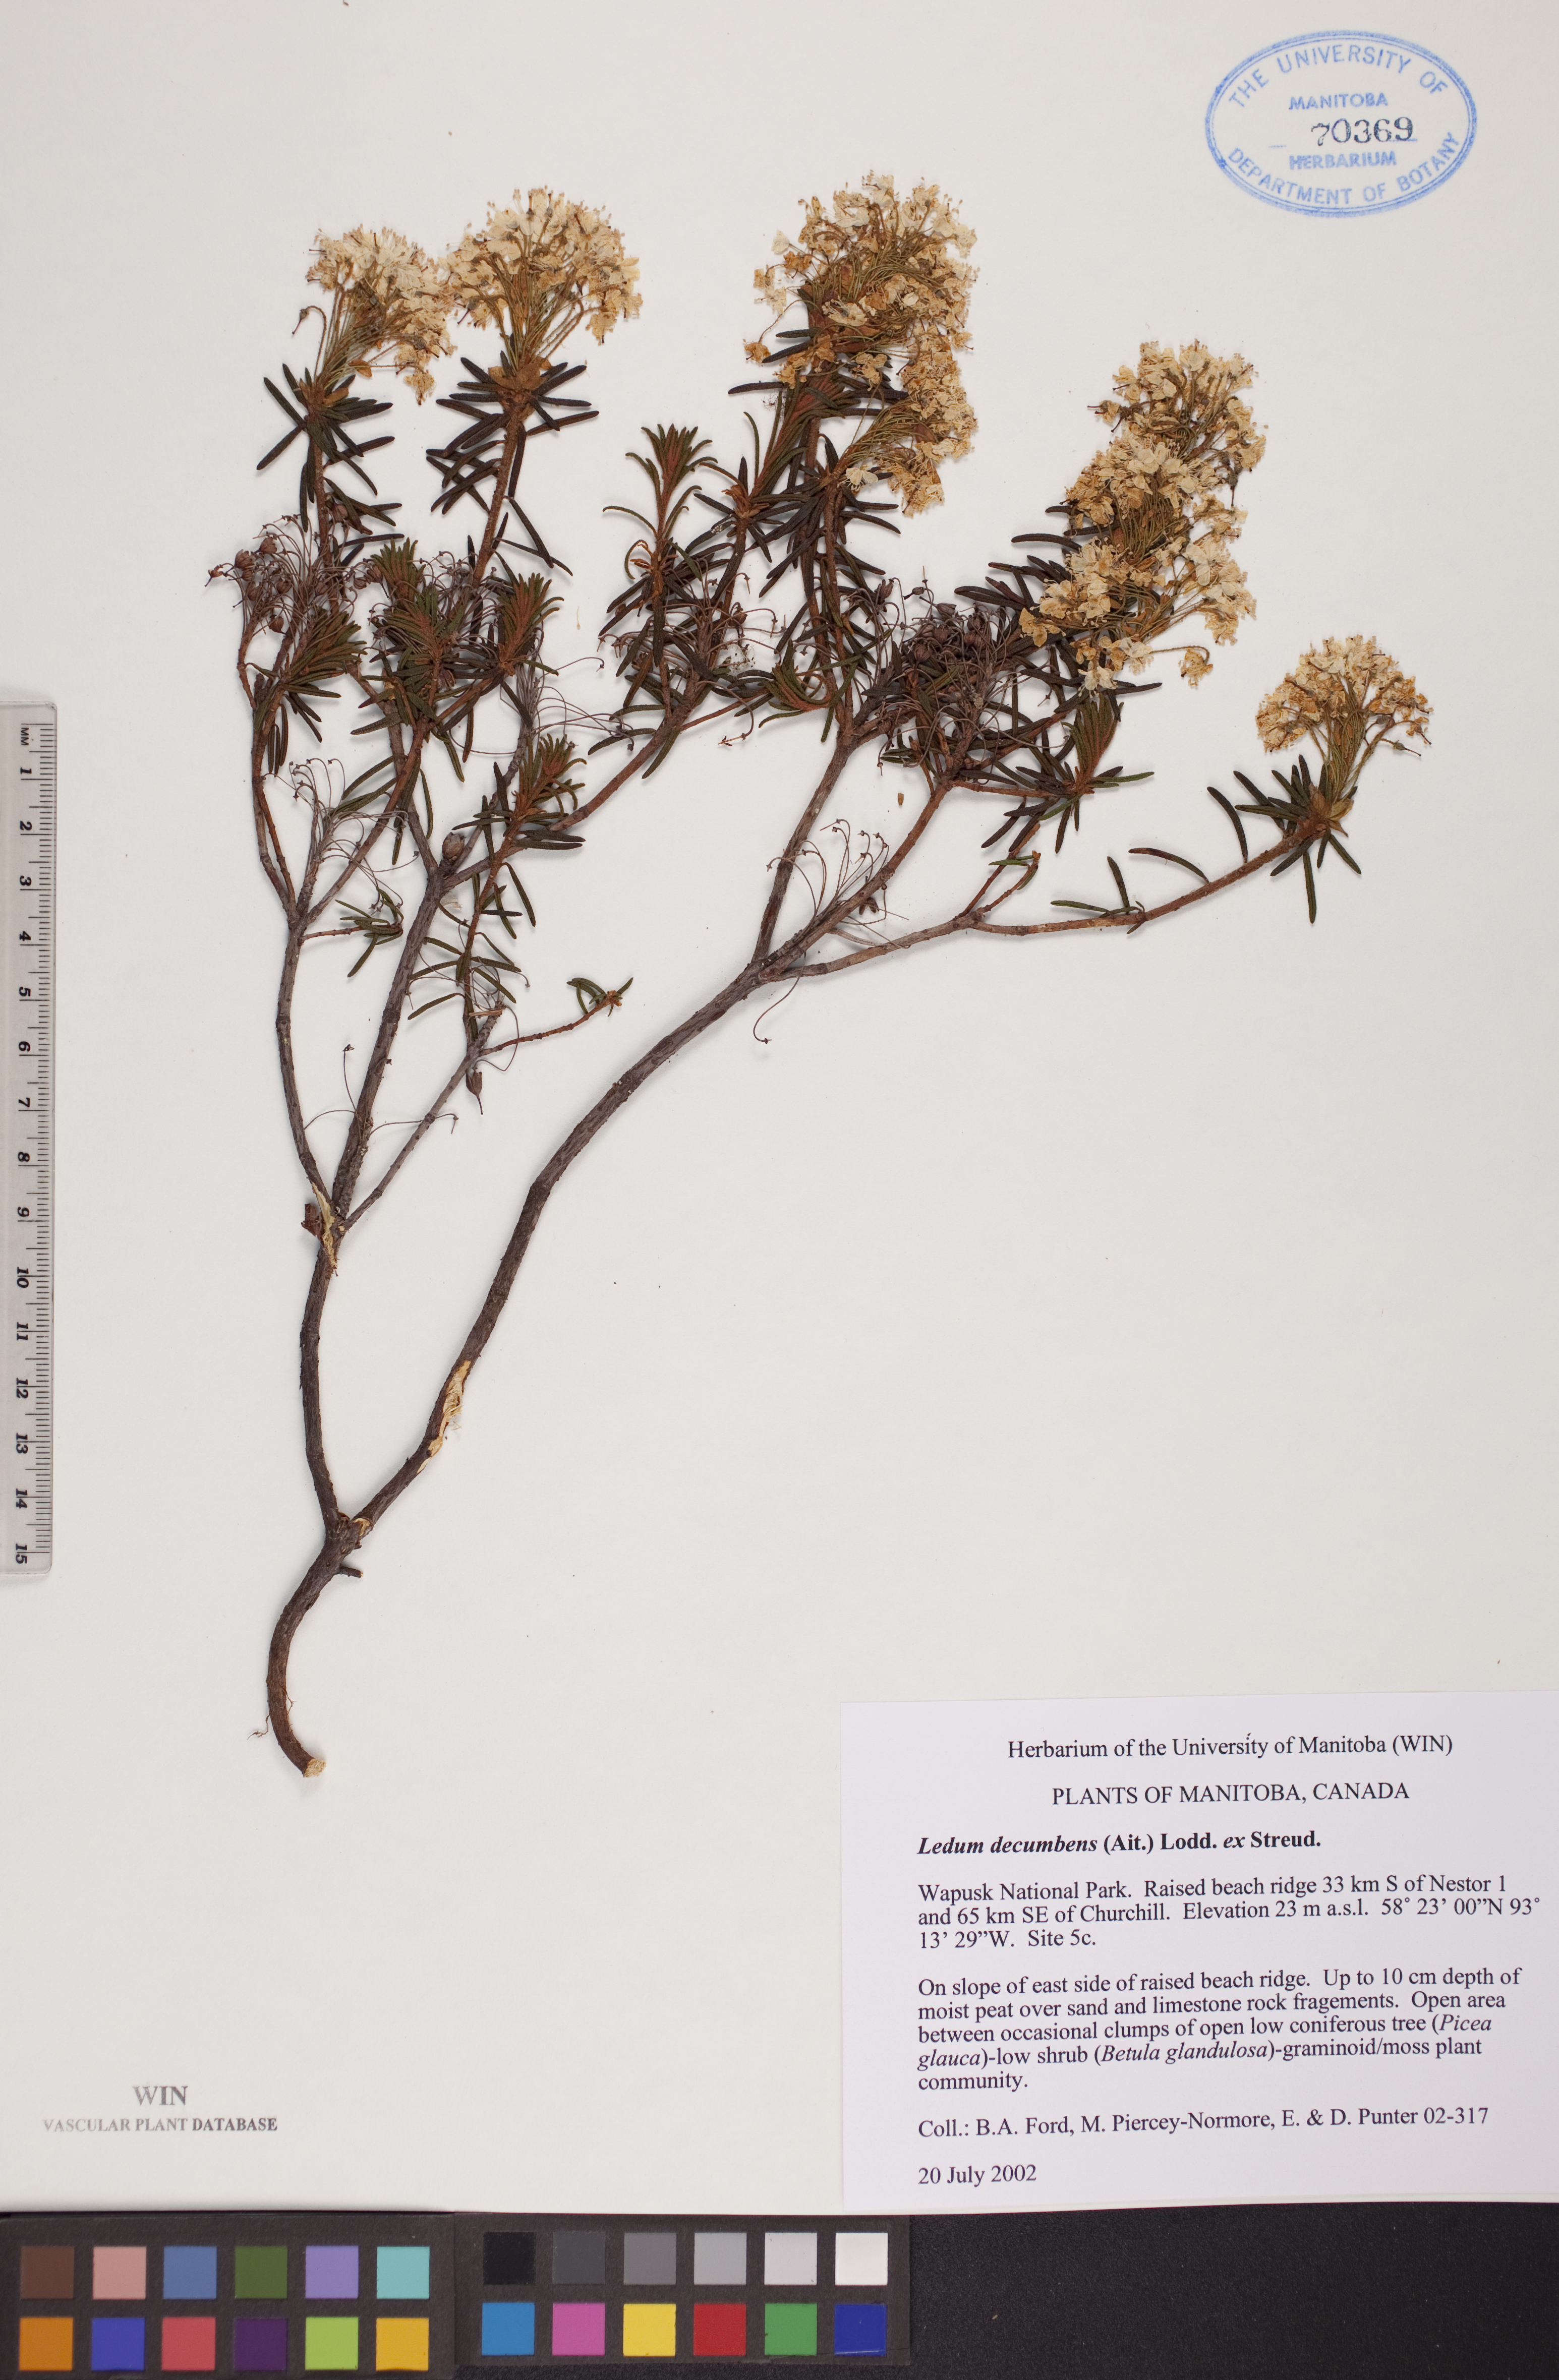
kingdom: Plantae
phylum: Tracheophyta
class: Magnoliopsida
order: Ericales
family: Ericaceae
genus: Rhododendron
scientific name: Rhododendron tomentosum
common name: Marsh labrador tea
